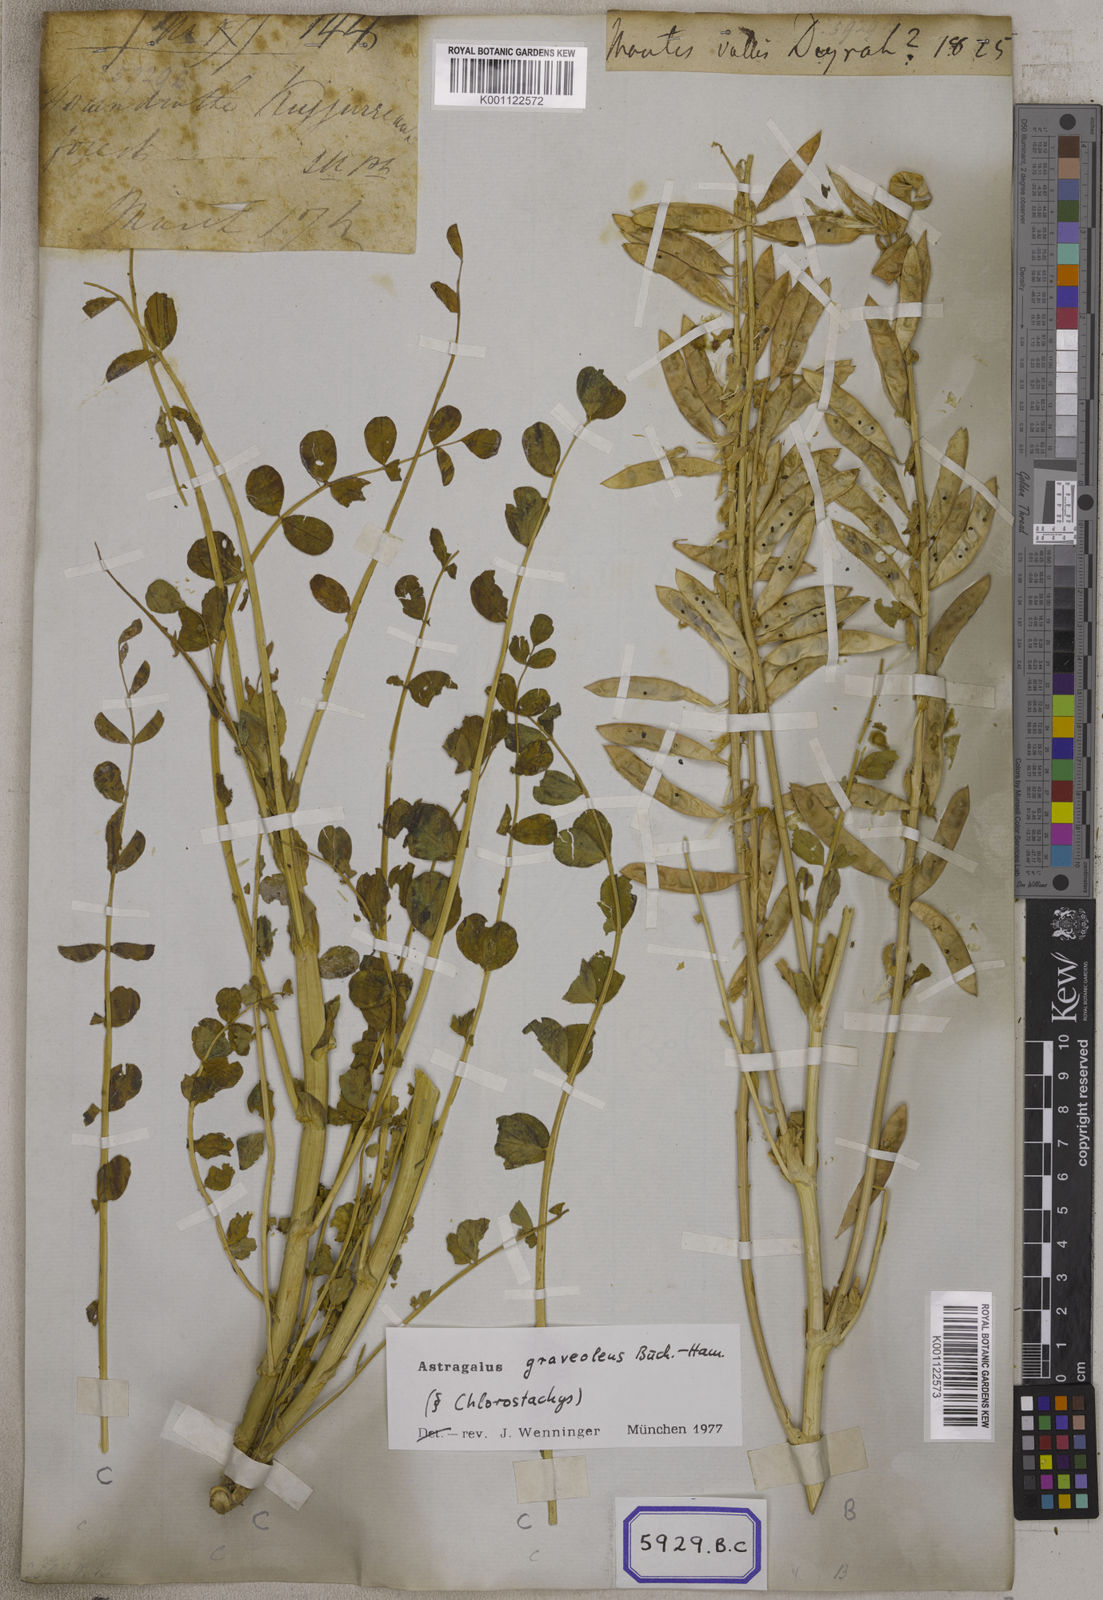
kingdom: Plantae
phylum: Tracheophyta
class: Magnoliopsida
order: Fabales
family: Fabaceae
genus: Astragalus
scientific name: Astragalus
